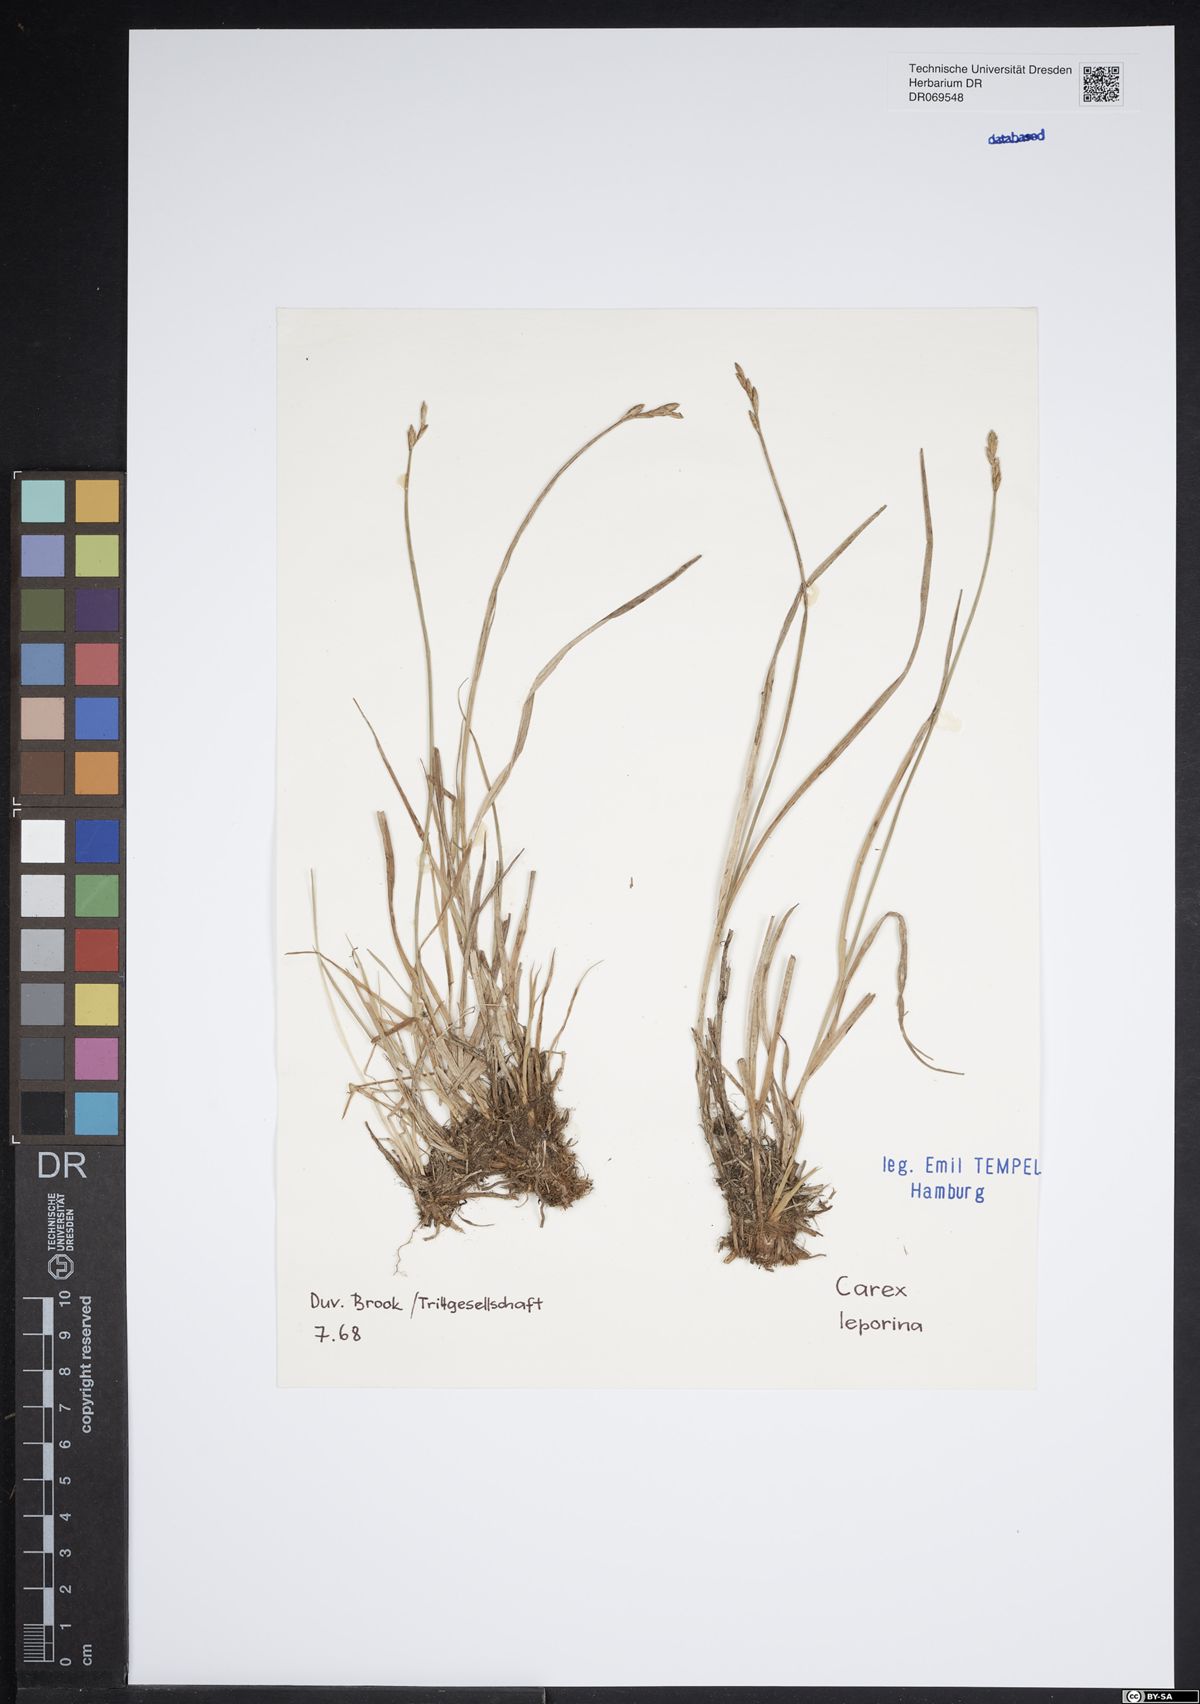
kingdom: Plantae
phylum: Tracheophyta
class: Liliopsida
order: Poales
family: Cyperaceae
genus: Carex
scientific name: Carex leporina
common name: Oval sedge
